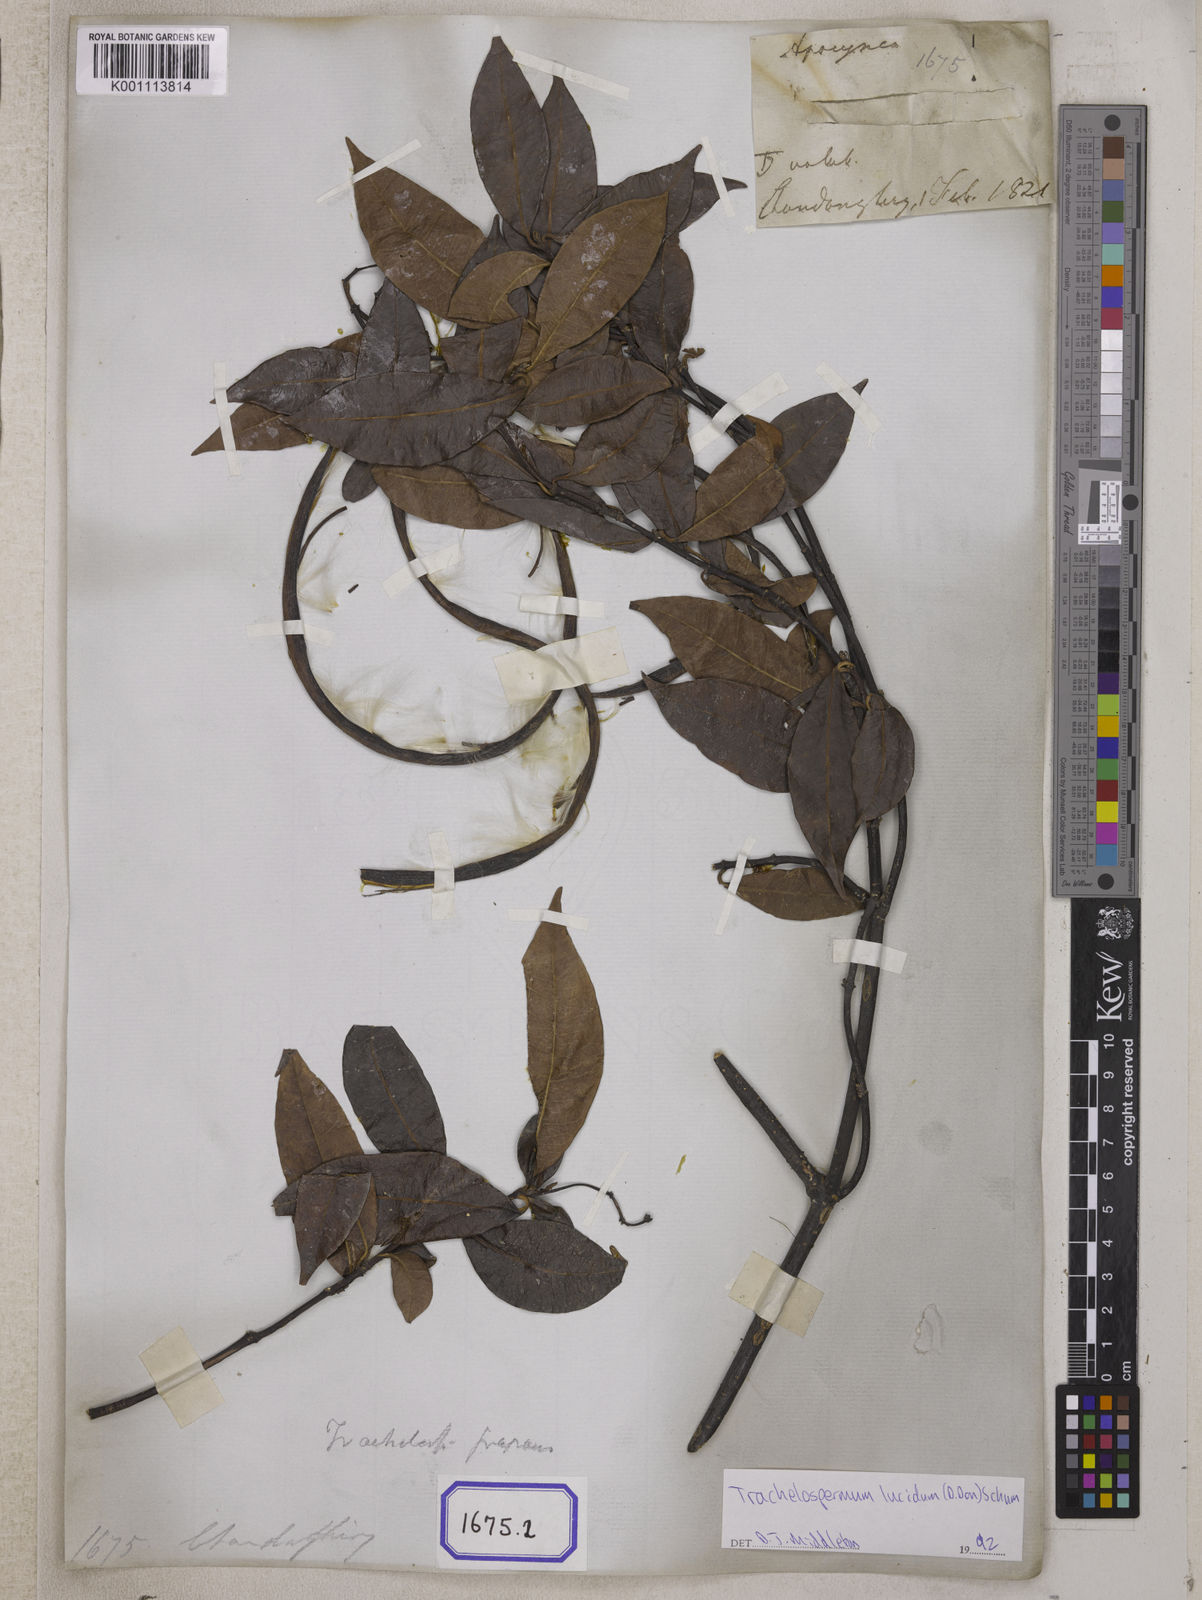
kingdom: Plantae
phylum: Tracheophyta
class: Magnoliopsida
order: Gentianales
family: Apocynaceae
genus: Ichnocarpus
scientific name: Ichnocarpus
